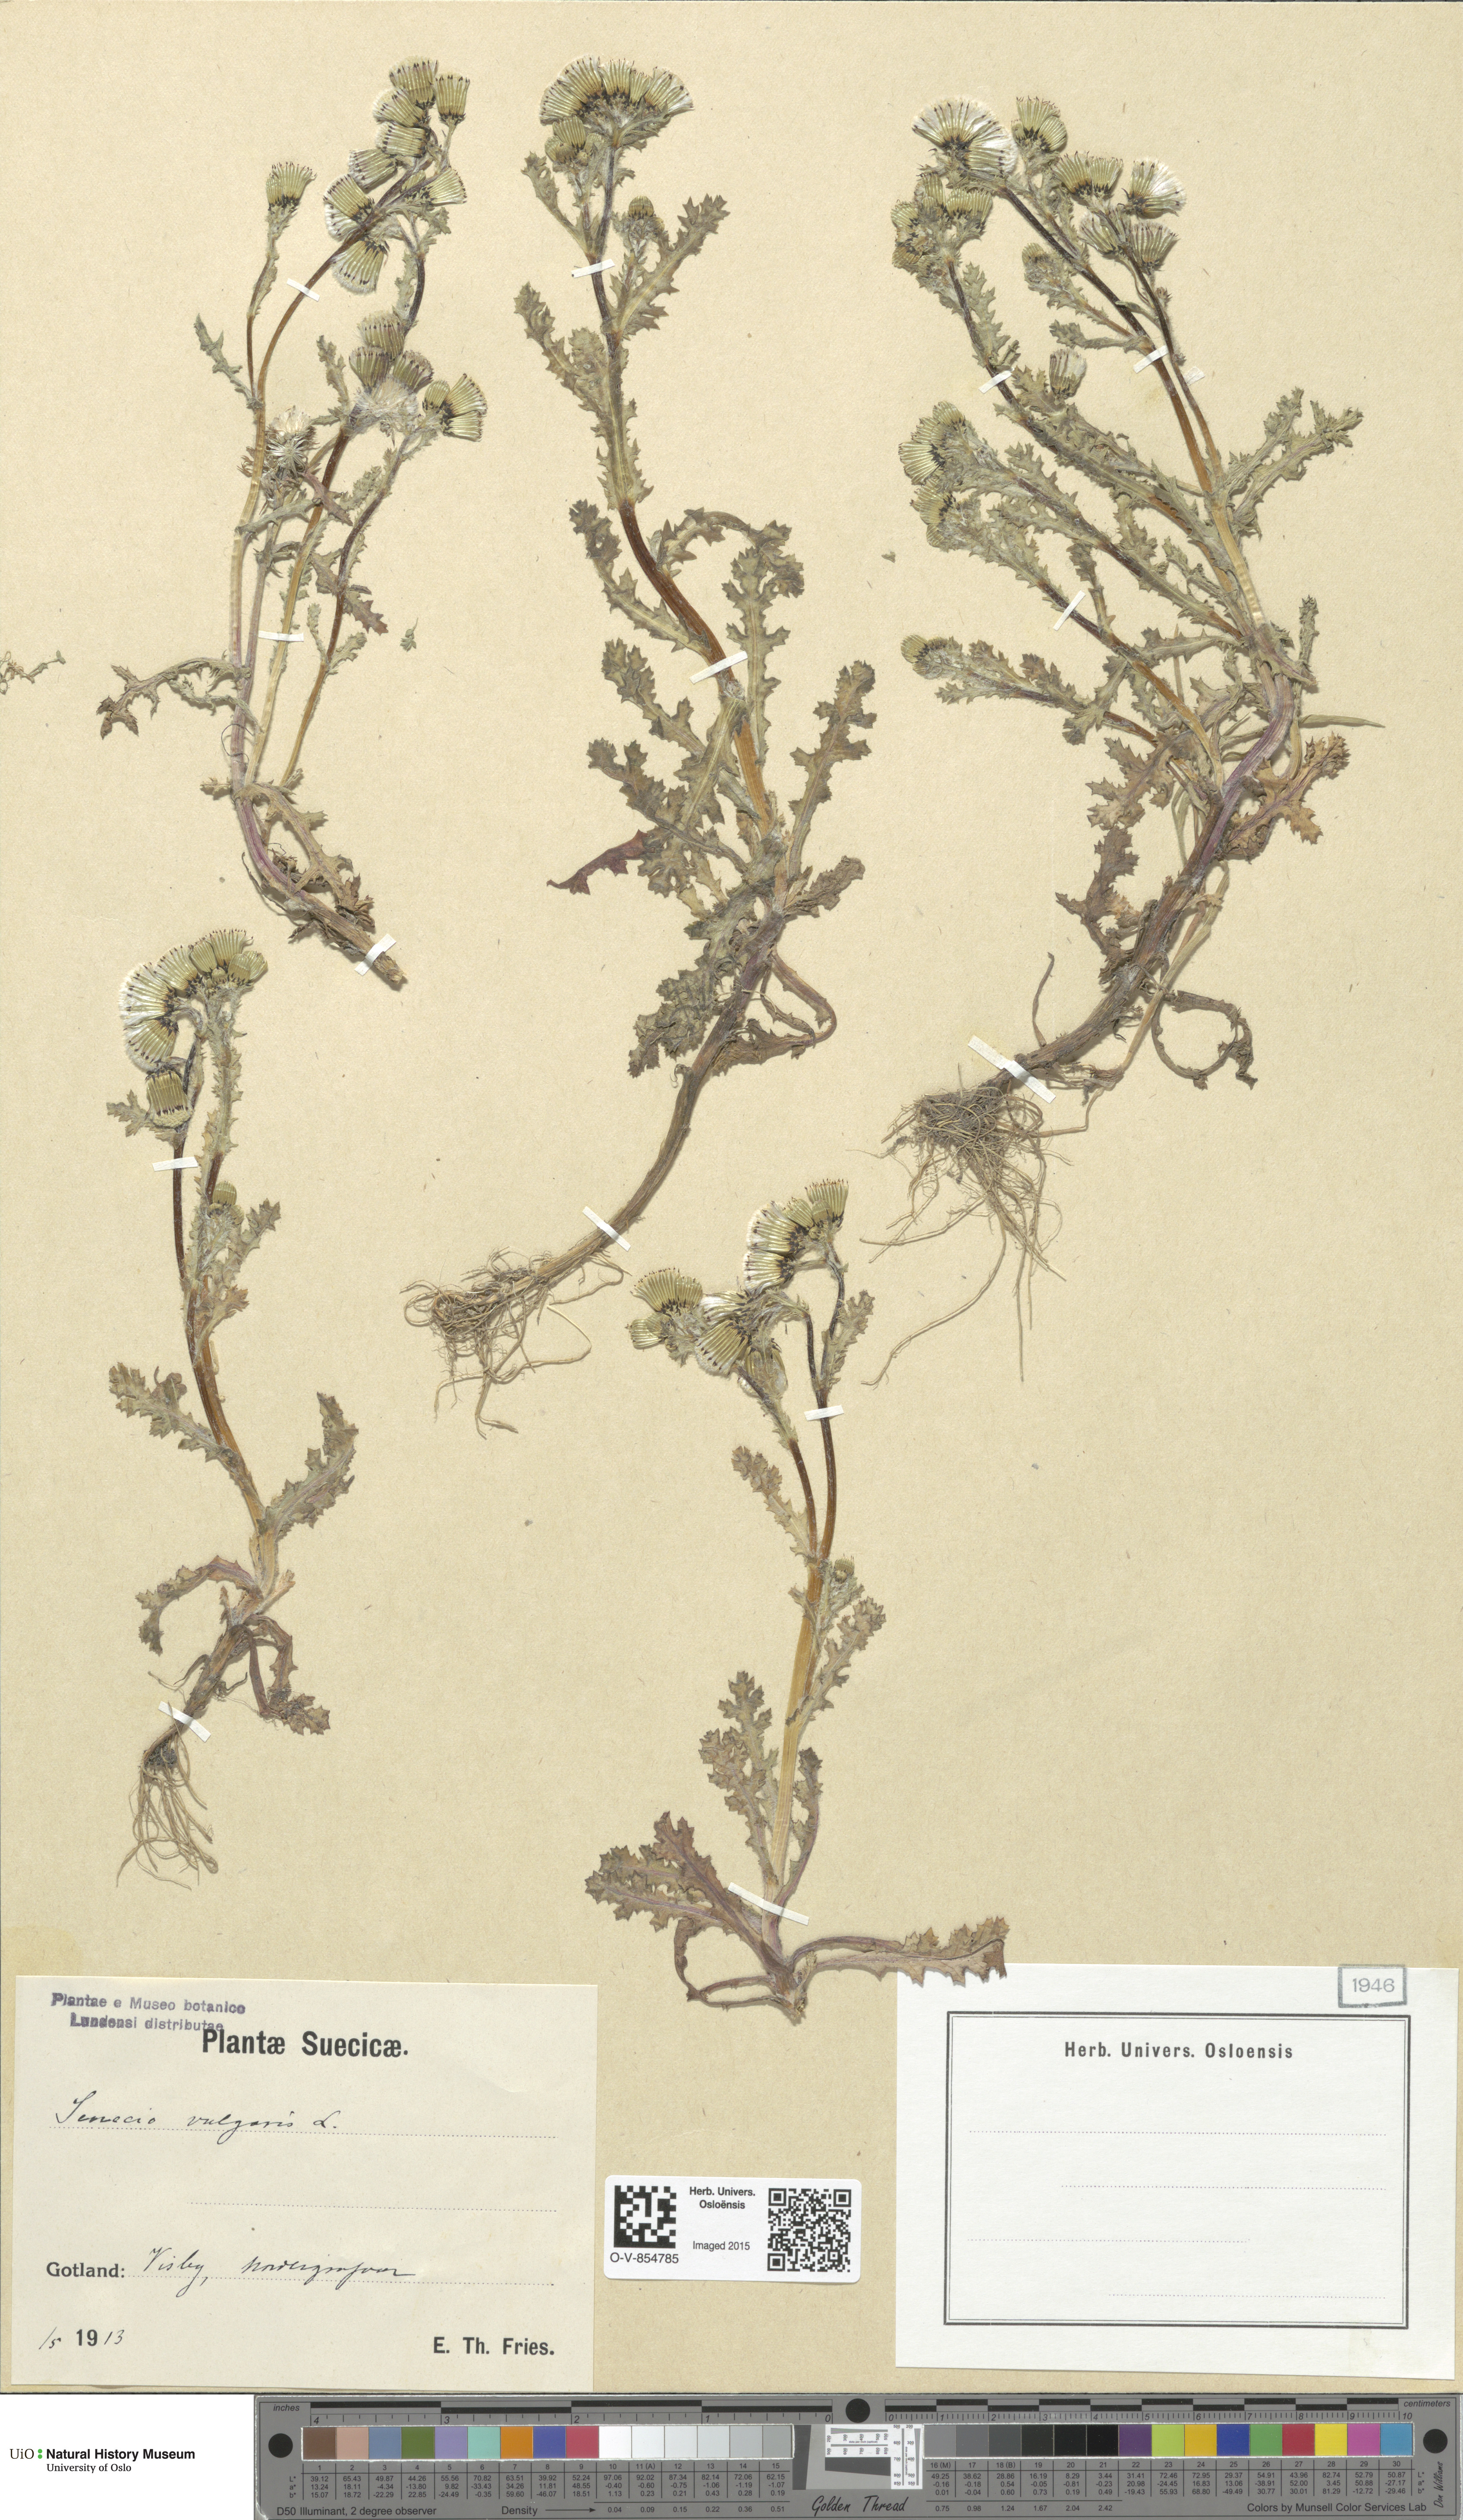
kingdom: Plantae
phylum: Tracheophyta
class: Magnoliopsida
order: Asterales
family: Asteraceae
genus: Senecio
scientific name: Senecio vulgaris
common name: Old-man-in-the-spring
